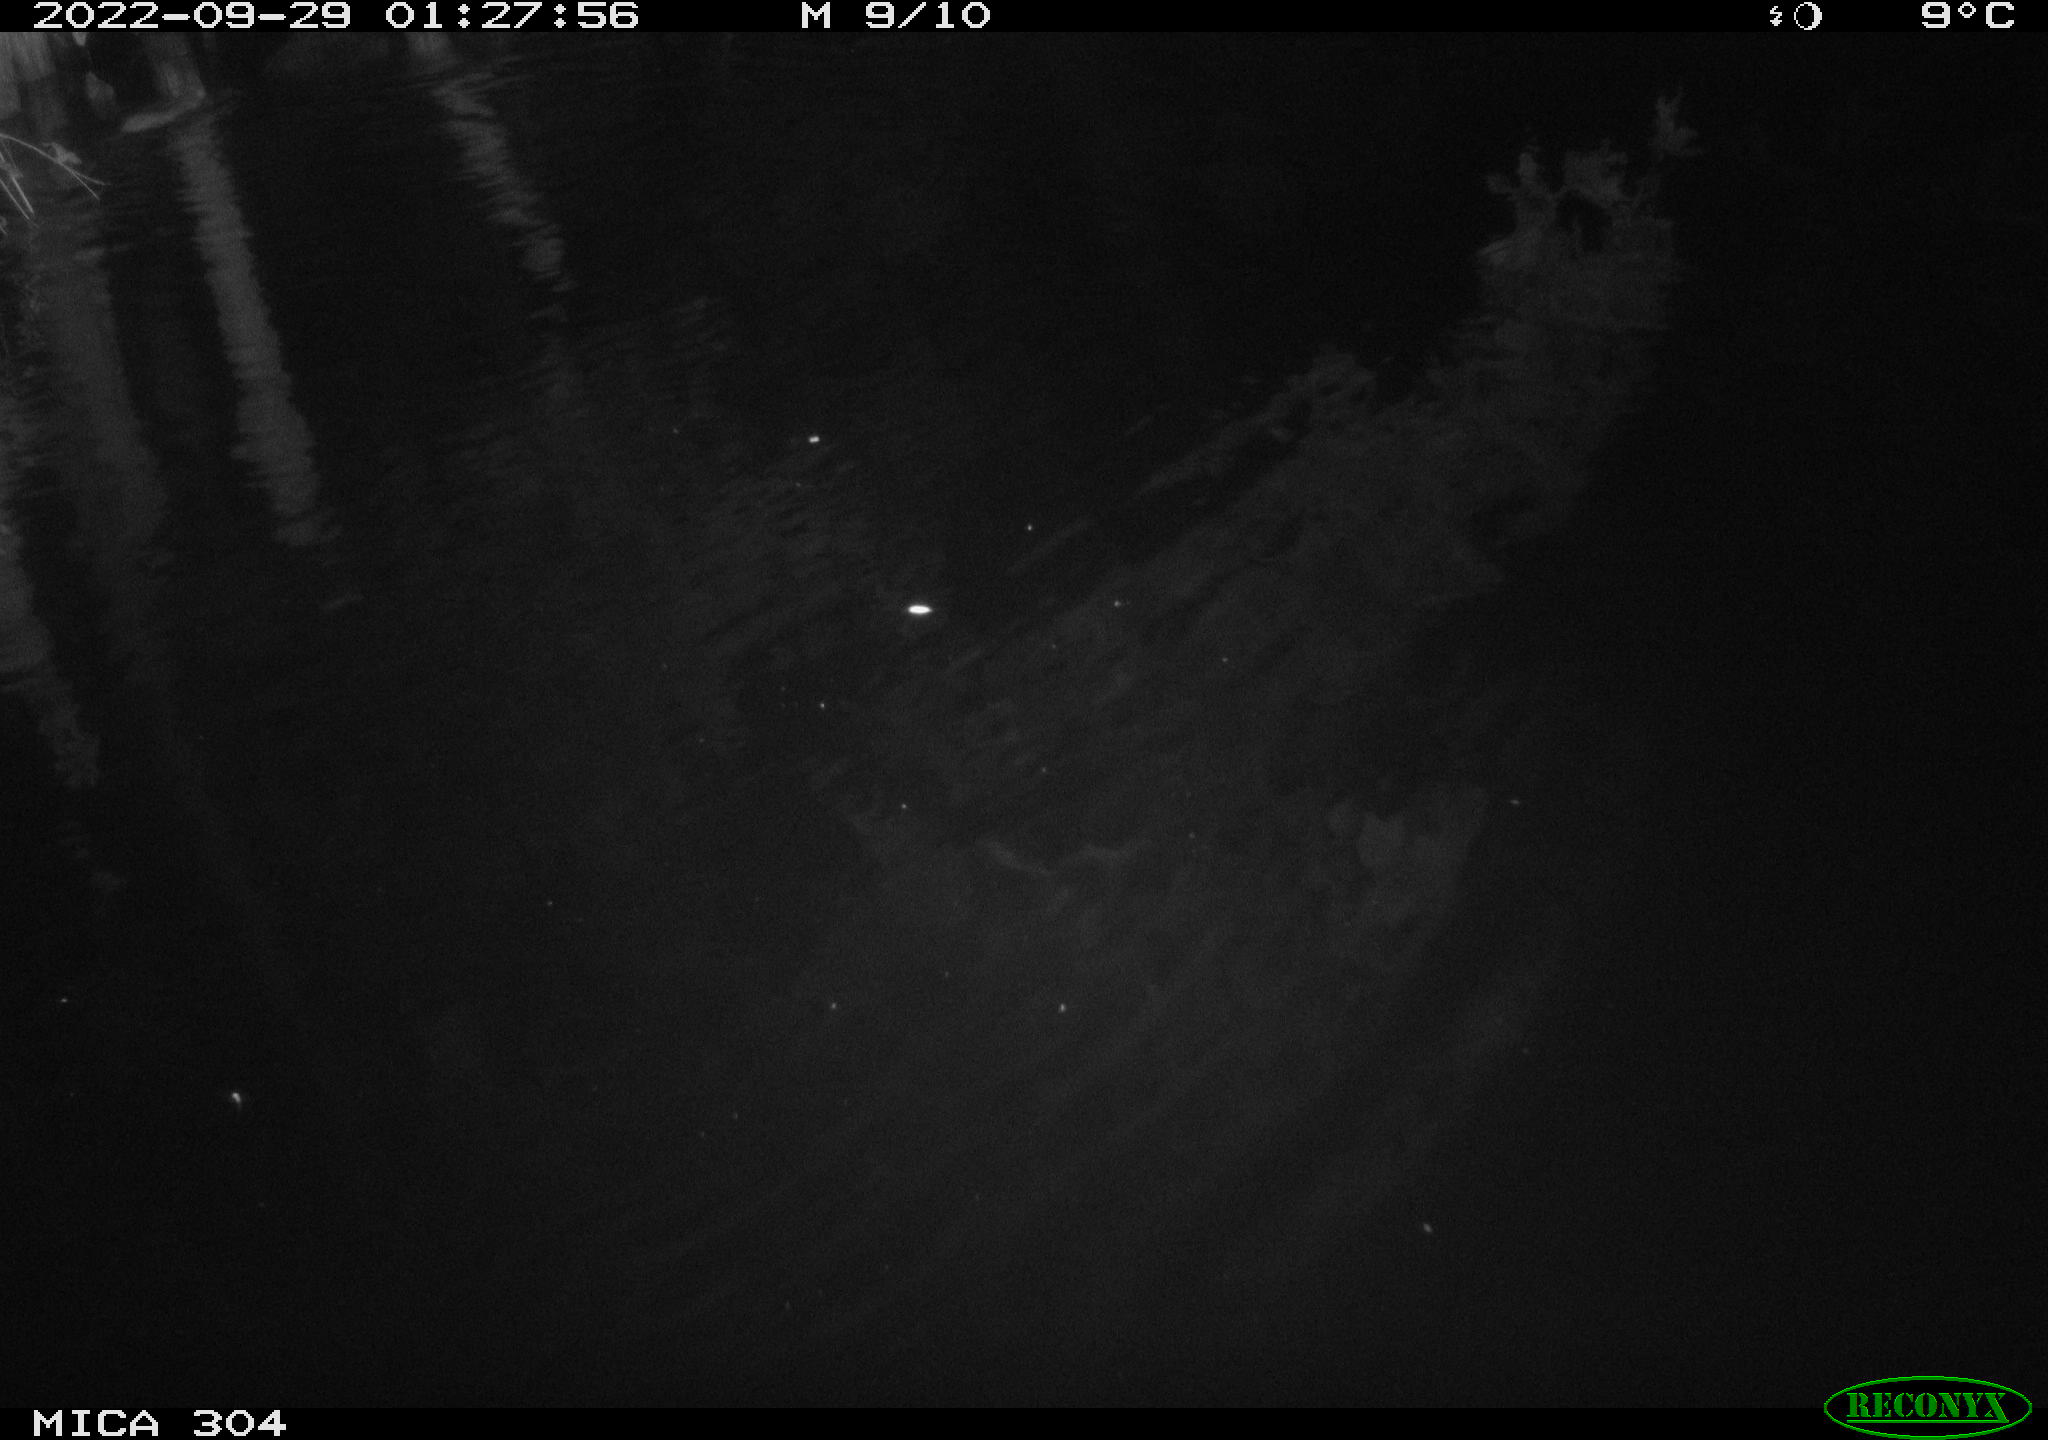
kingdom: Animalia
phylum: Chordata
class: Mammalia
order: Rodentia
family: Muridae
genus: Rattus
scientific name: Rattus norvegicus
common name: Brown rat
